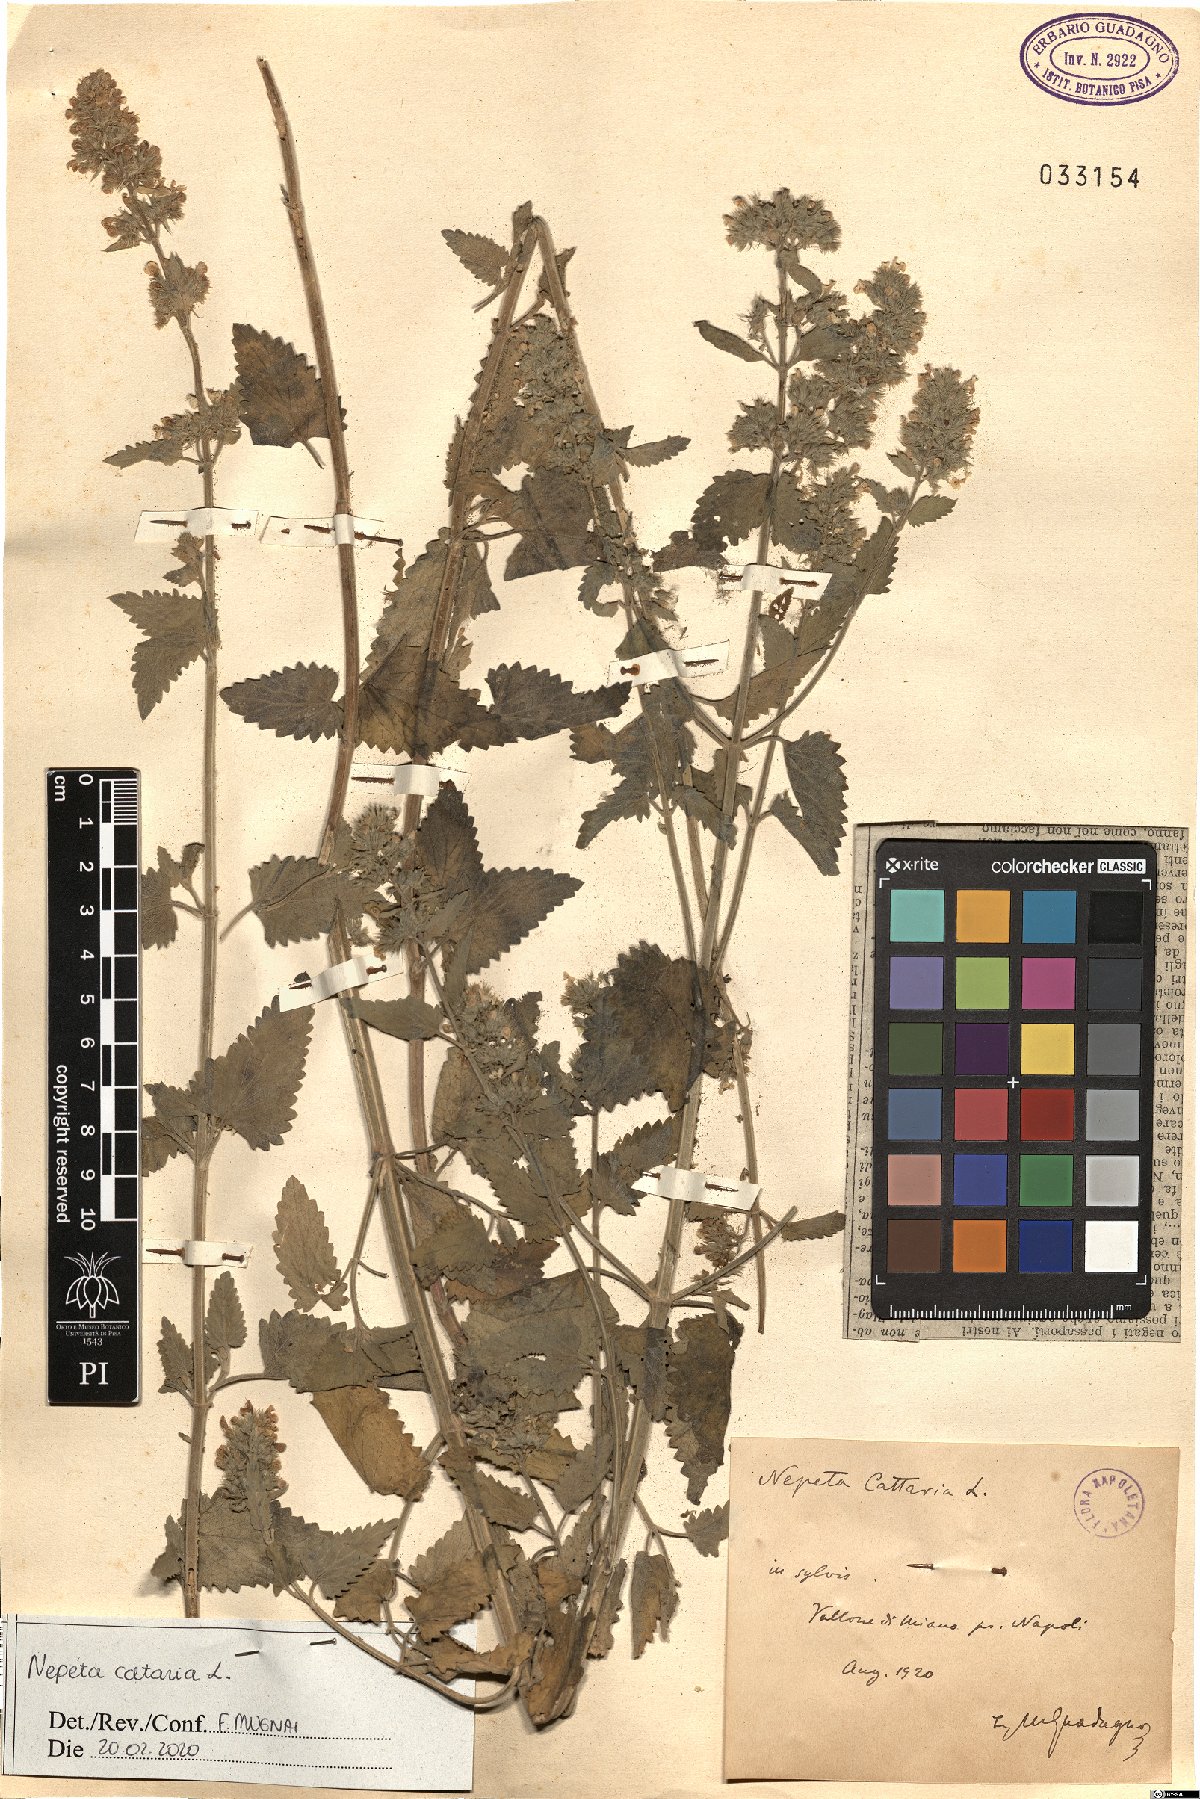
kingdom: Plantae
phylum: Tracheophyta
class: Magnoliopsida
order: Lamiales
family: Lamiaceae
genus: Nepeta
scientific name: Nepeta cataria
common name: Catnip
